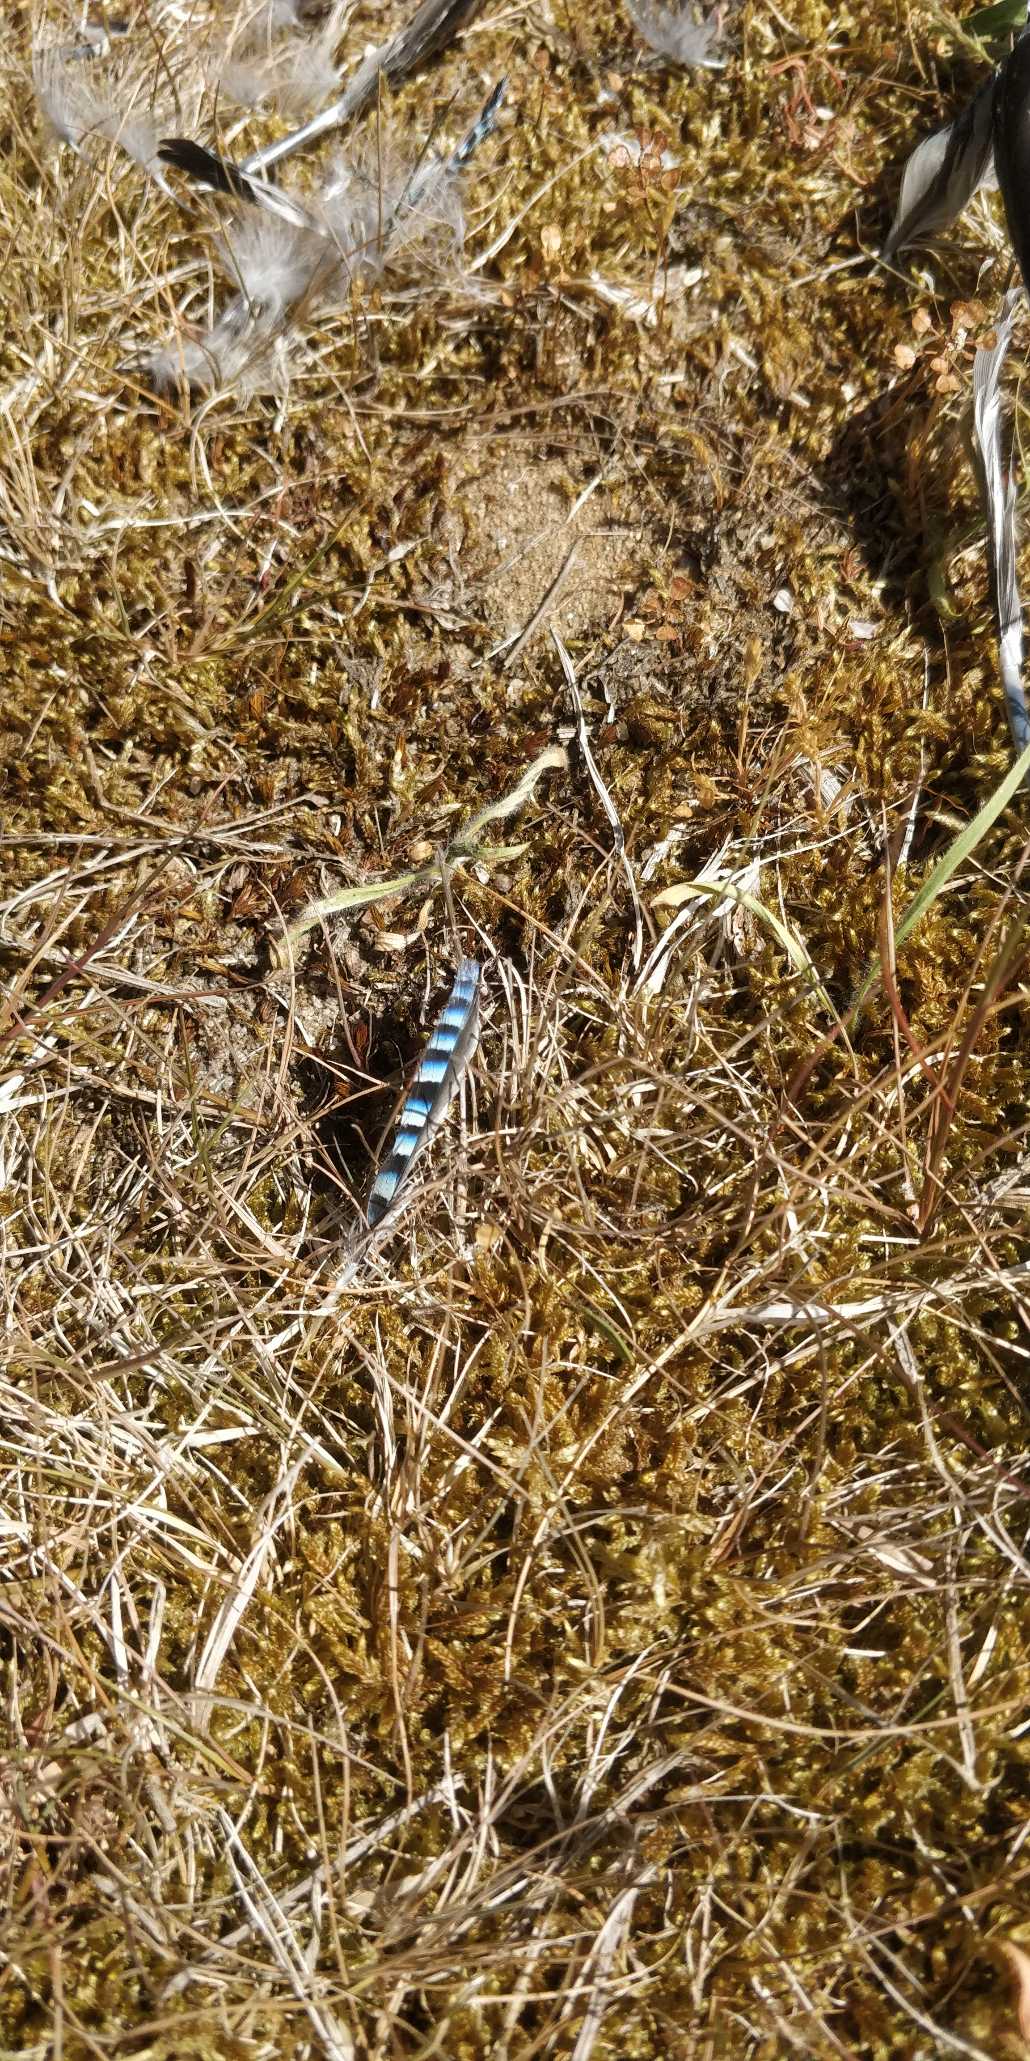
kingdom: Animalia
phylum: Chordata
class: Aves
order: Passeriformes
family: Corvidae
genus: Garrulus
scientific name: Garrulus glandarius
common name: Skovskade
